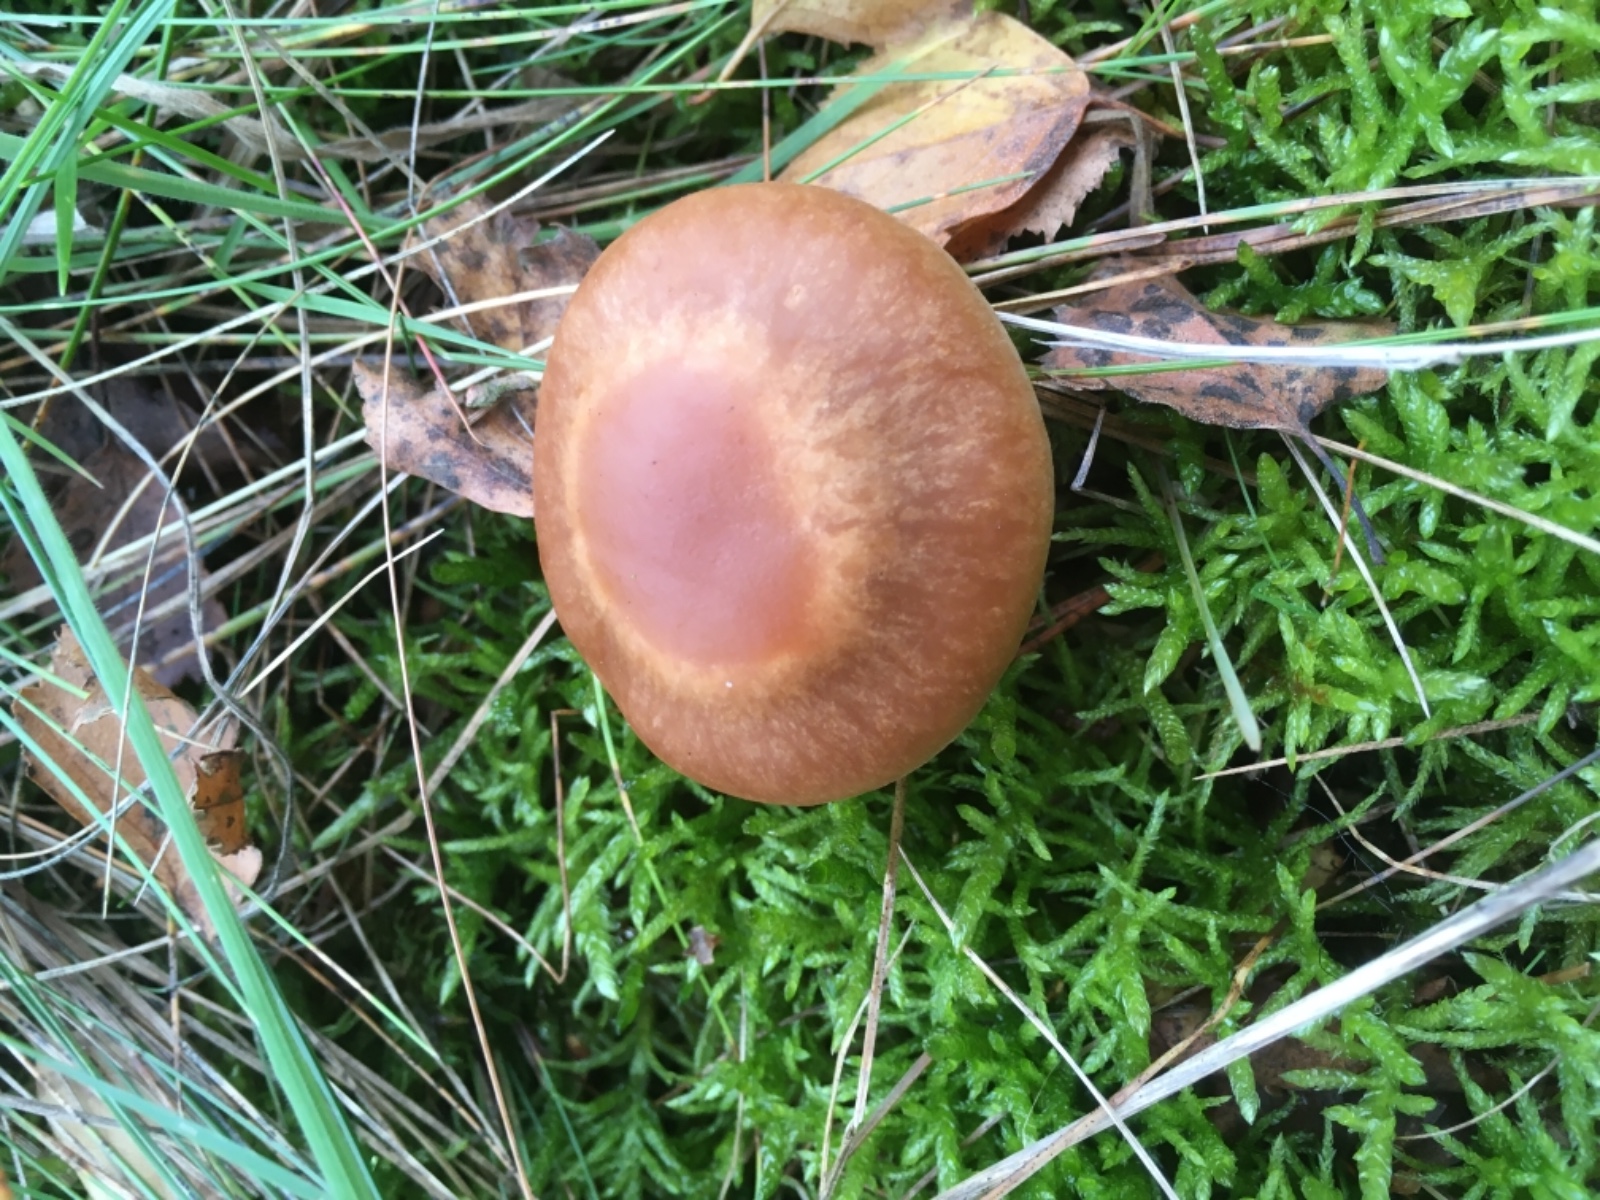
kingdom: Fungi
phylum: Basidiomycota
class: Agaricomycetes
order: Agaricales
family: Cortinariaceae
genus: Cortinarius
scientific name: Cortinarius
